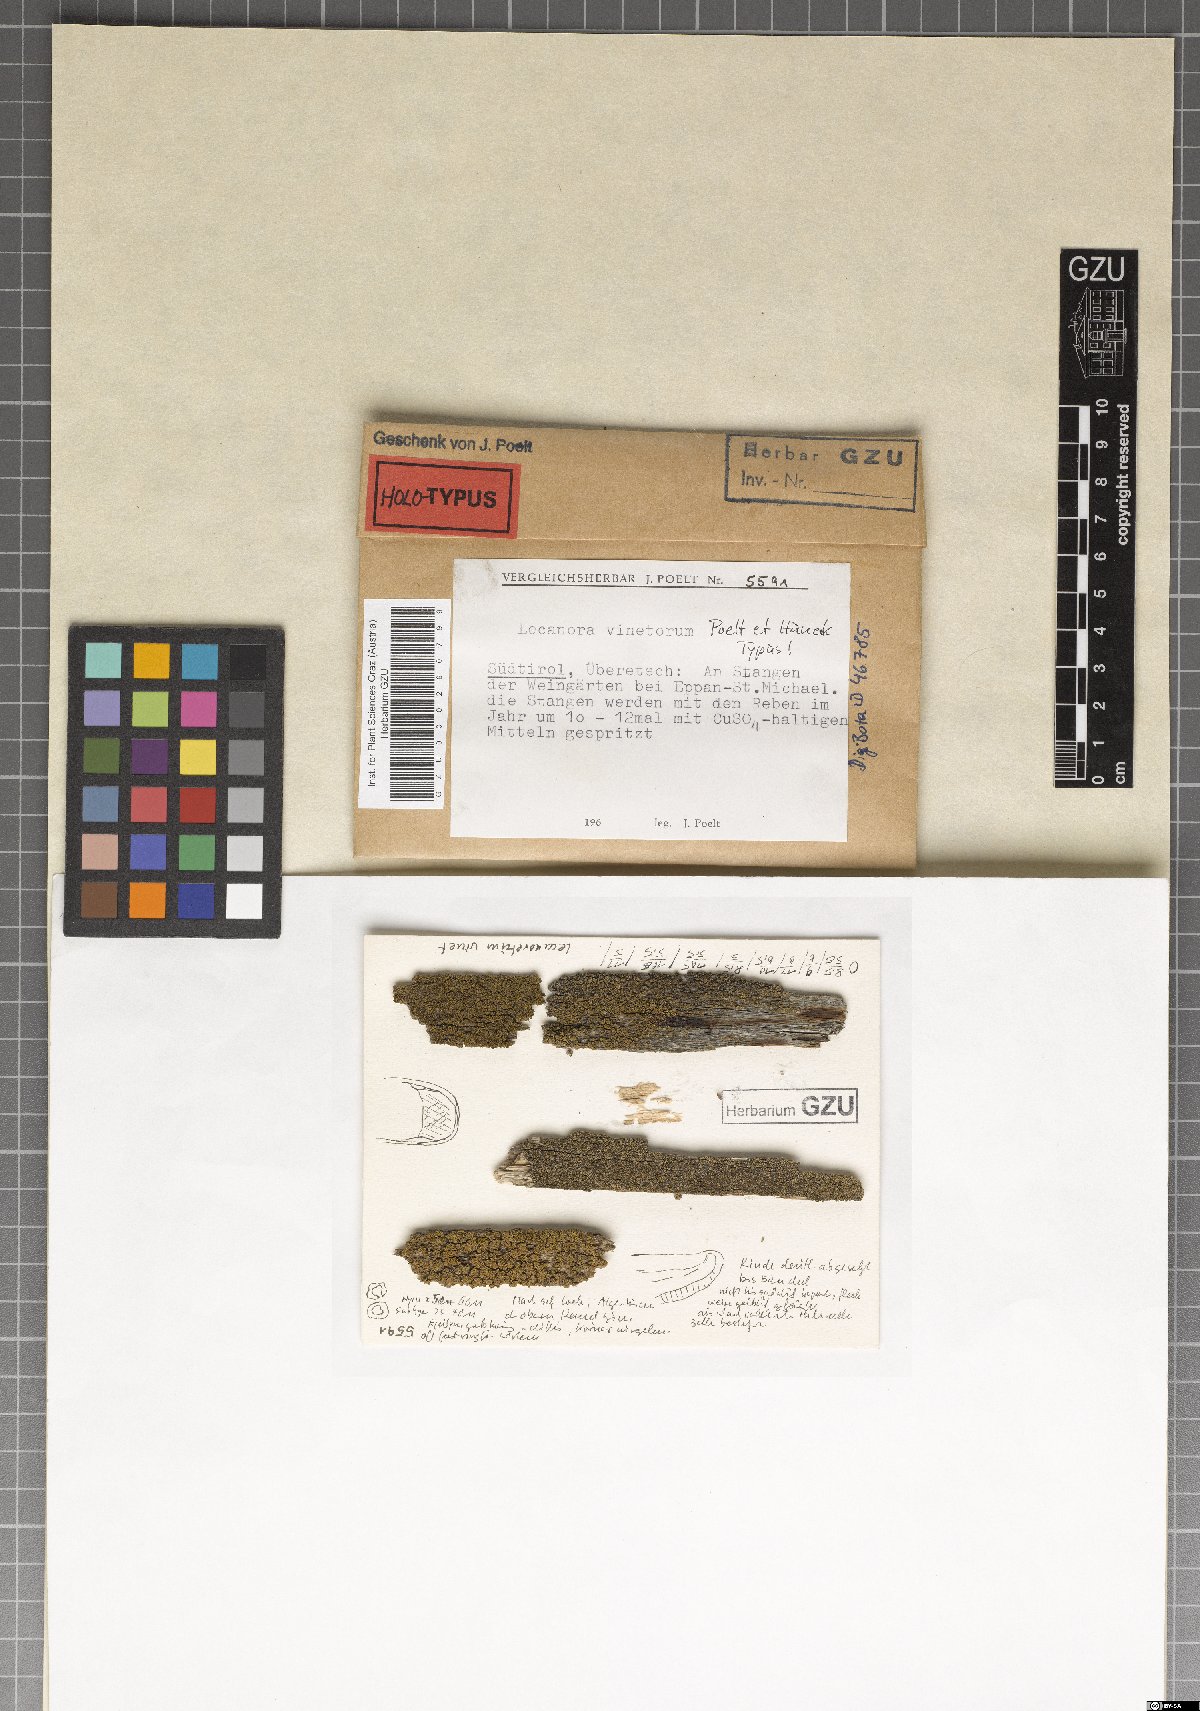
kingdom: Fungi
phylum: Ascomycota
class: Lecanoromycetes
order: Lecanorales
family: Lecanoraceae
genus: Lecanora
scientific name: Lecanora vinetorum
